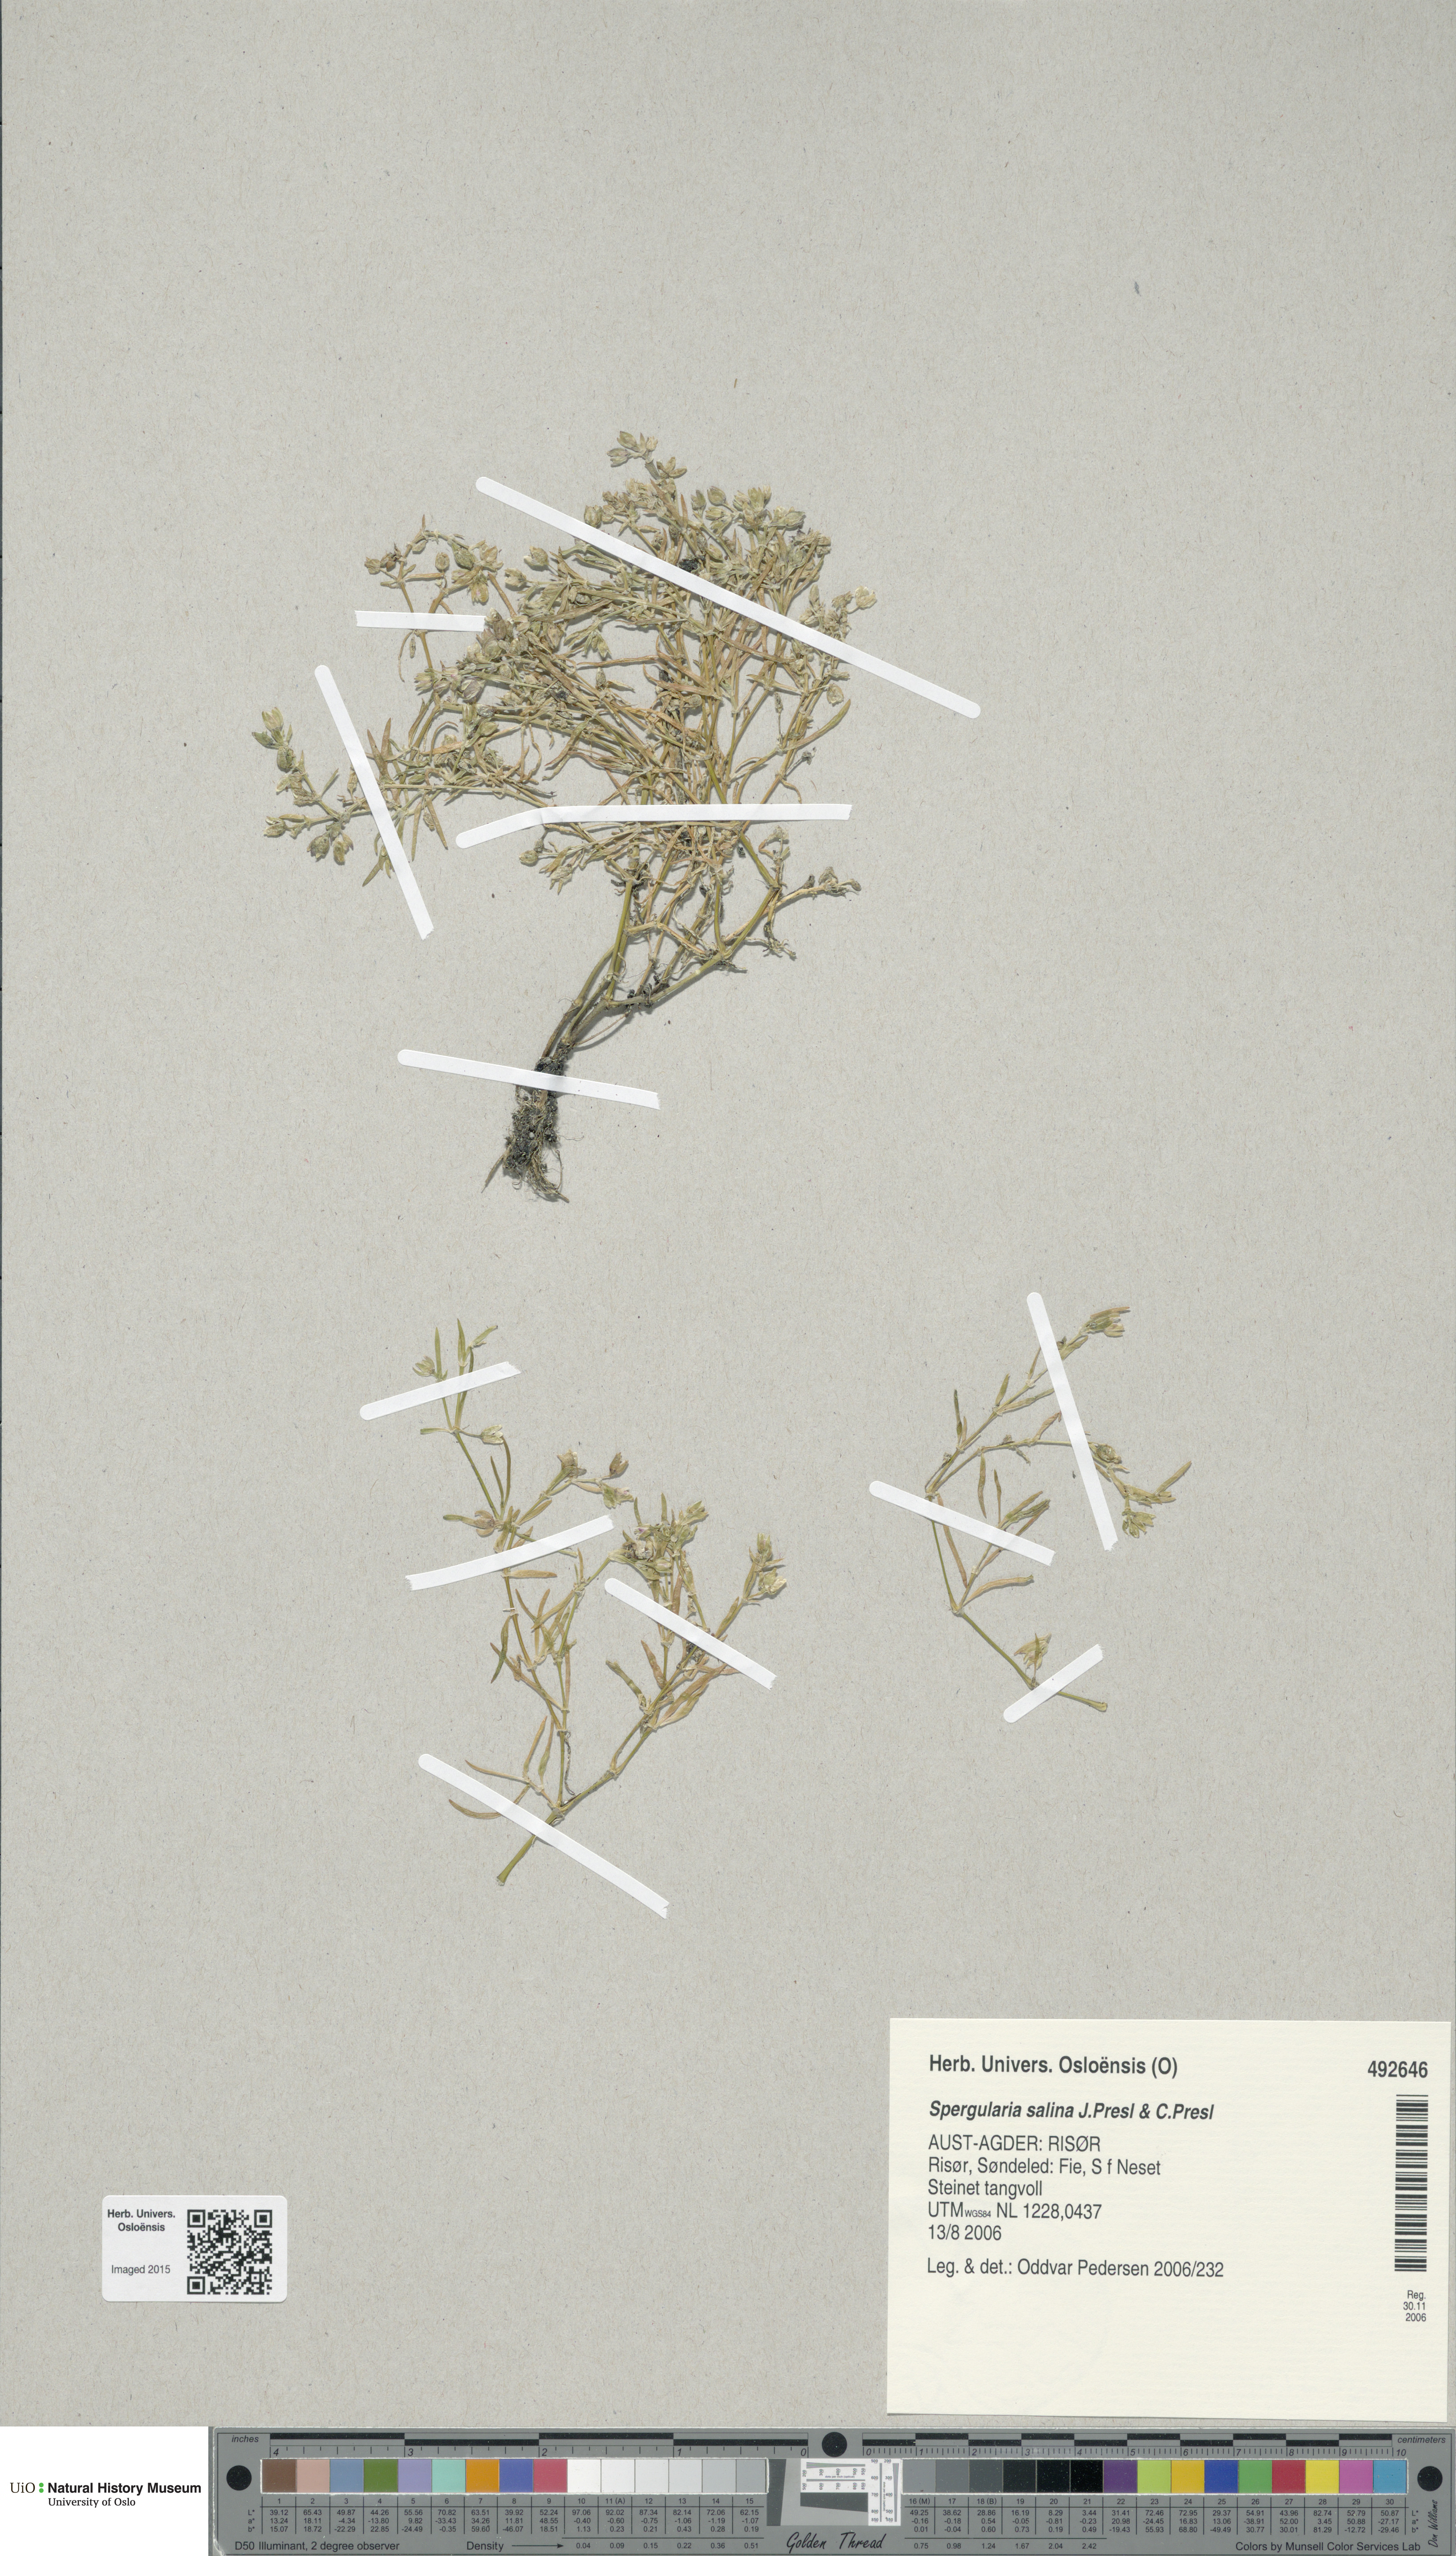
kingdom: Plantae
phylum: Tracheophyta
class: Magnoliopsida
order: Caryophyllales
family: Caryophyllaceae
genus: Spergularia
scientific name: Spergularia marina
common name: Lesser sea-spurrey
